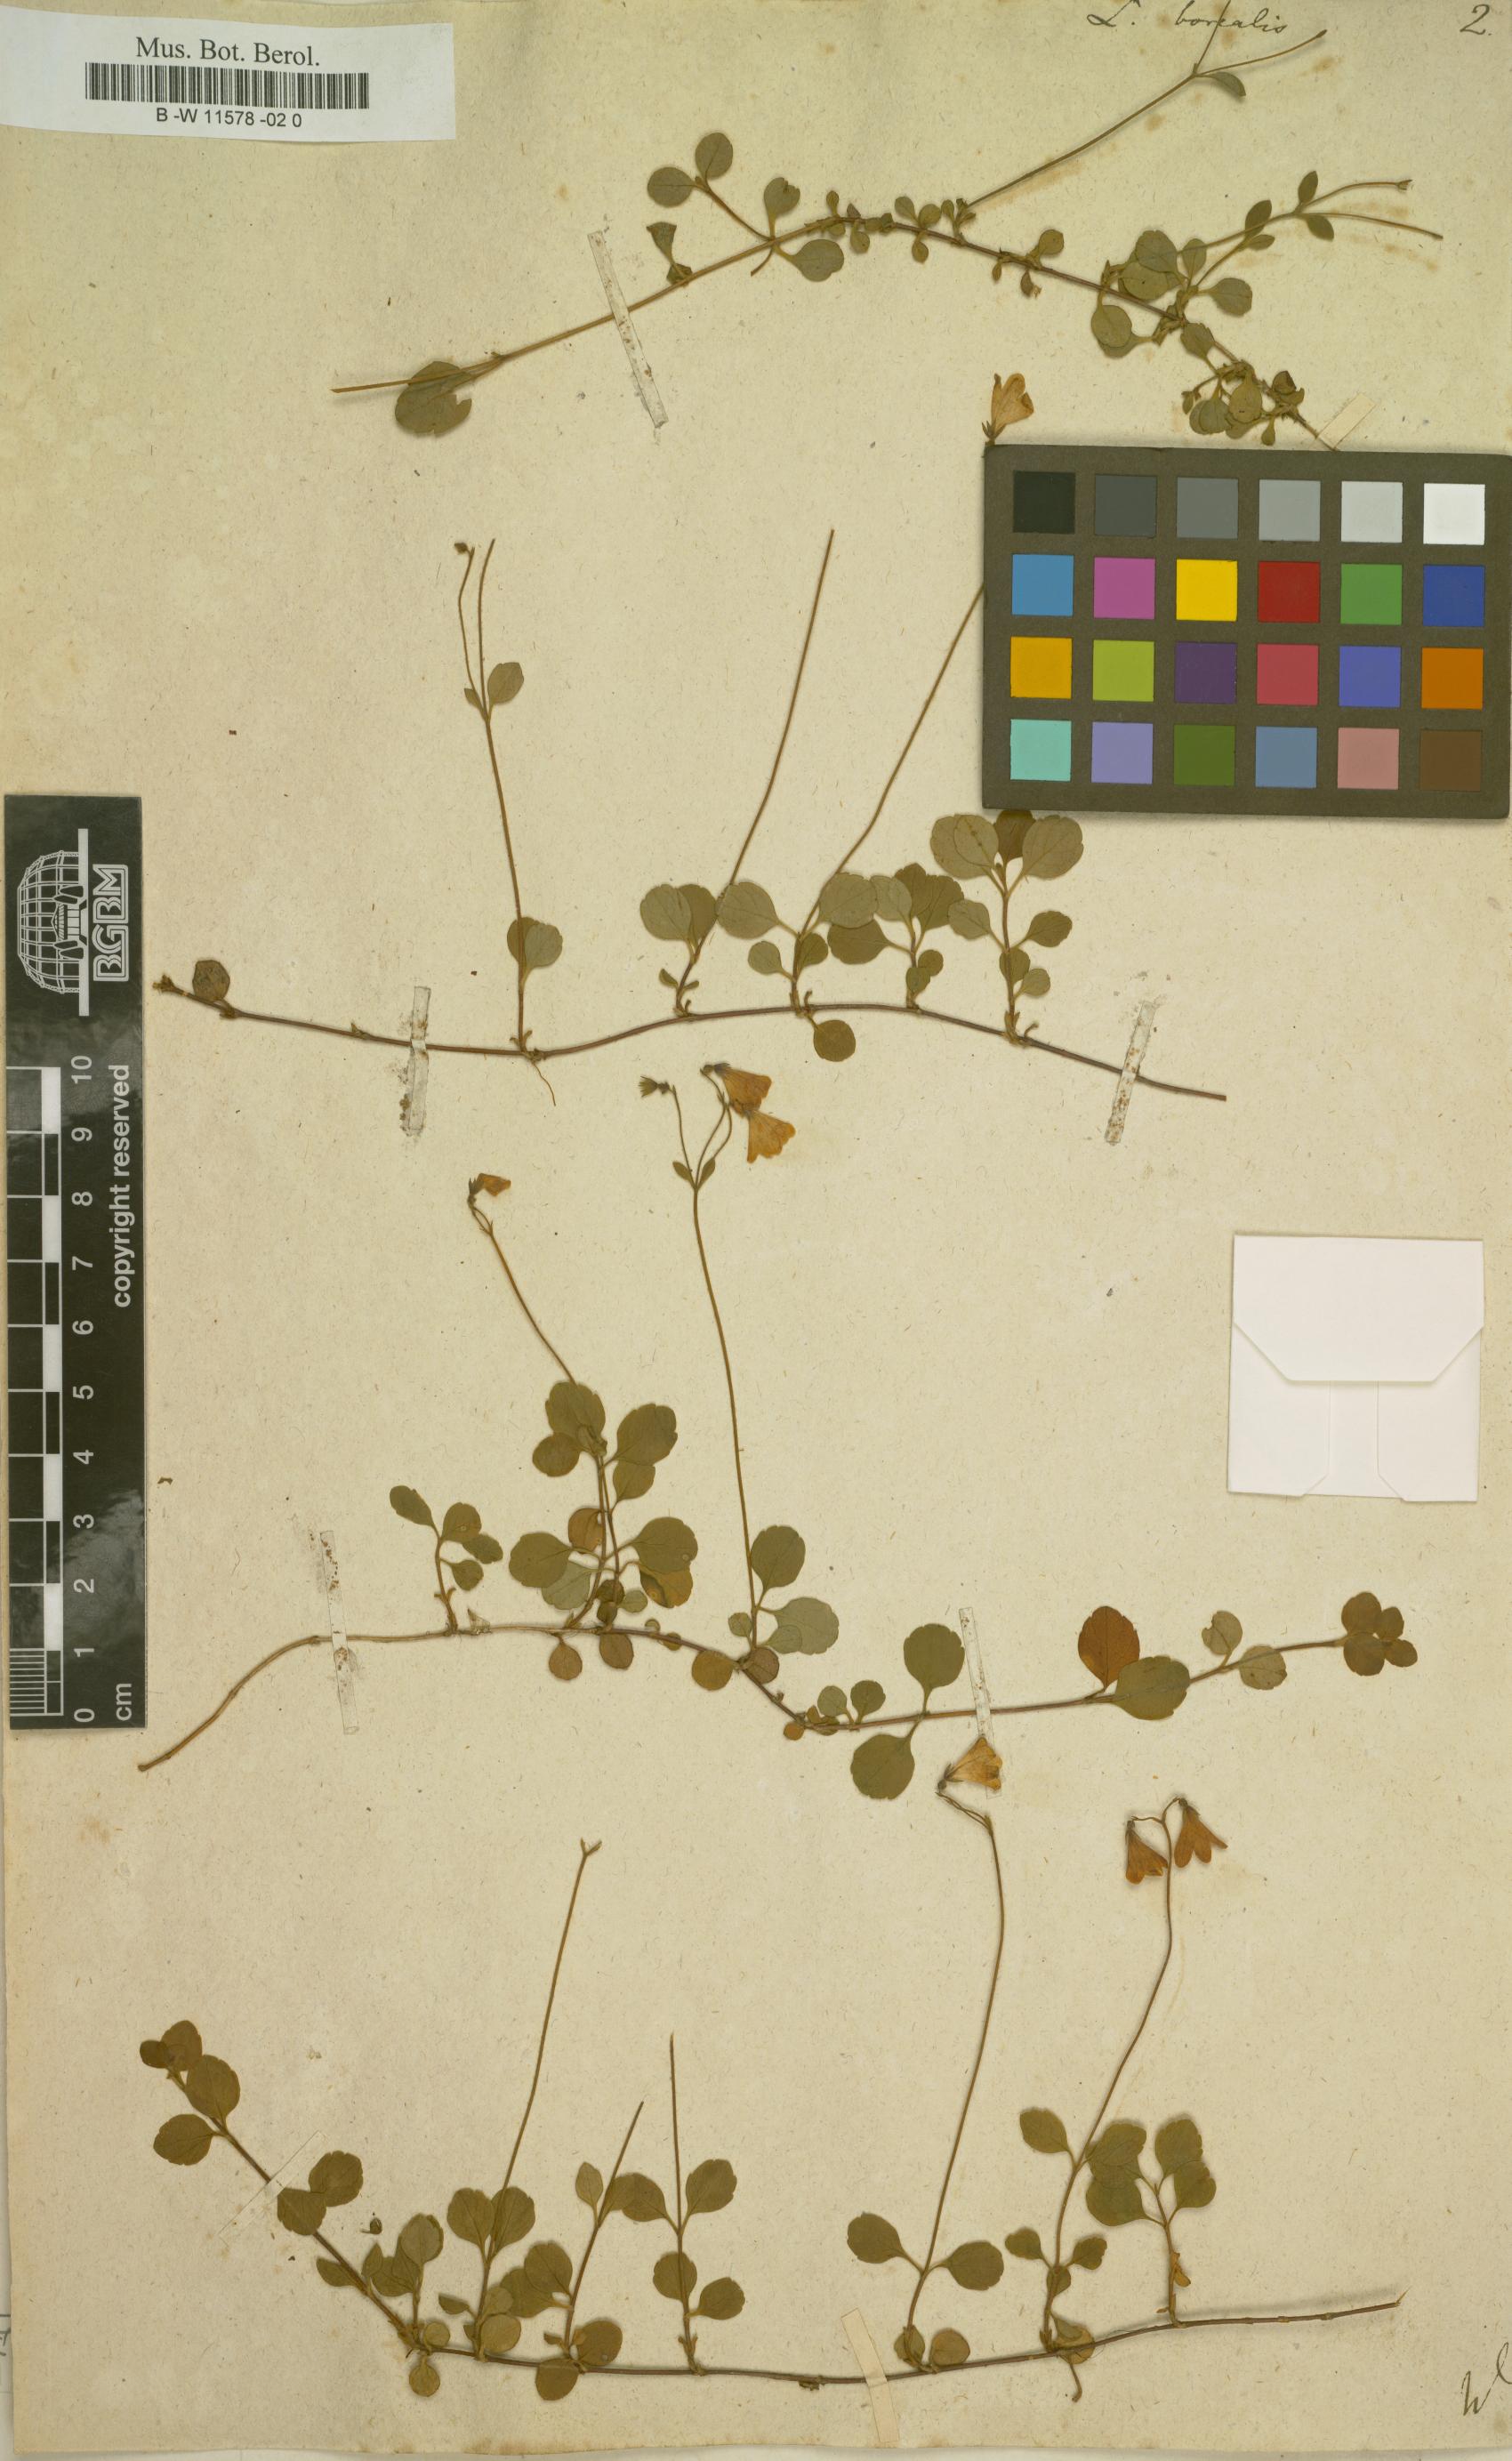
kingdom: Plantae
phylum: Tracheophyta
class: Magnoliopsida
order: Dipsacales
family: Caprifoliaceae
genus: Linnaea
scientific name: Linnaea borealis
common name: Twinflower
